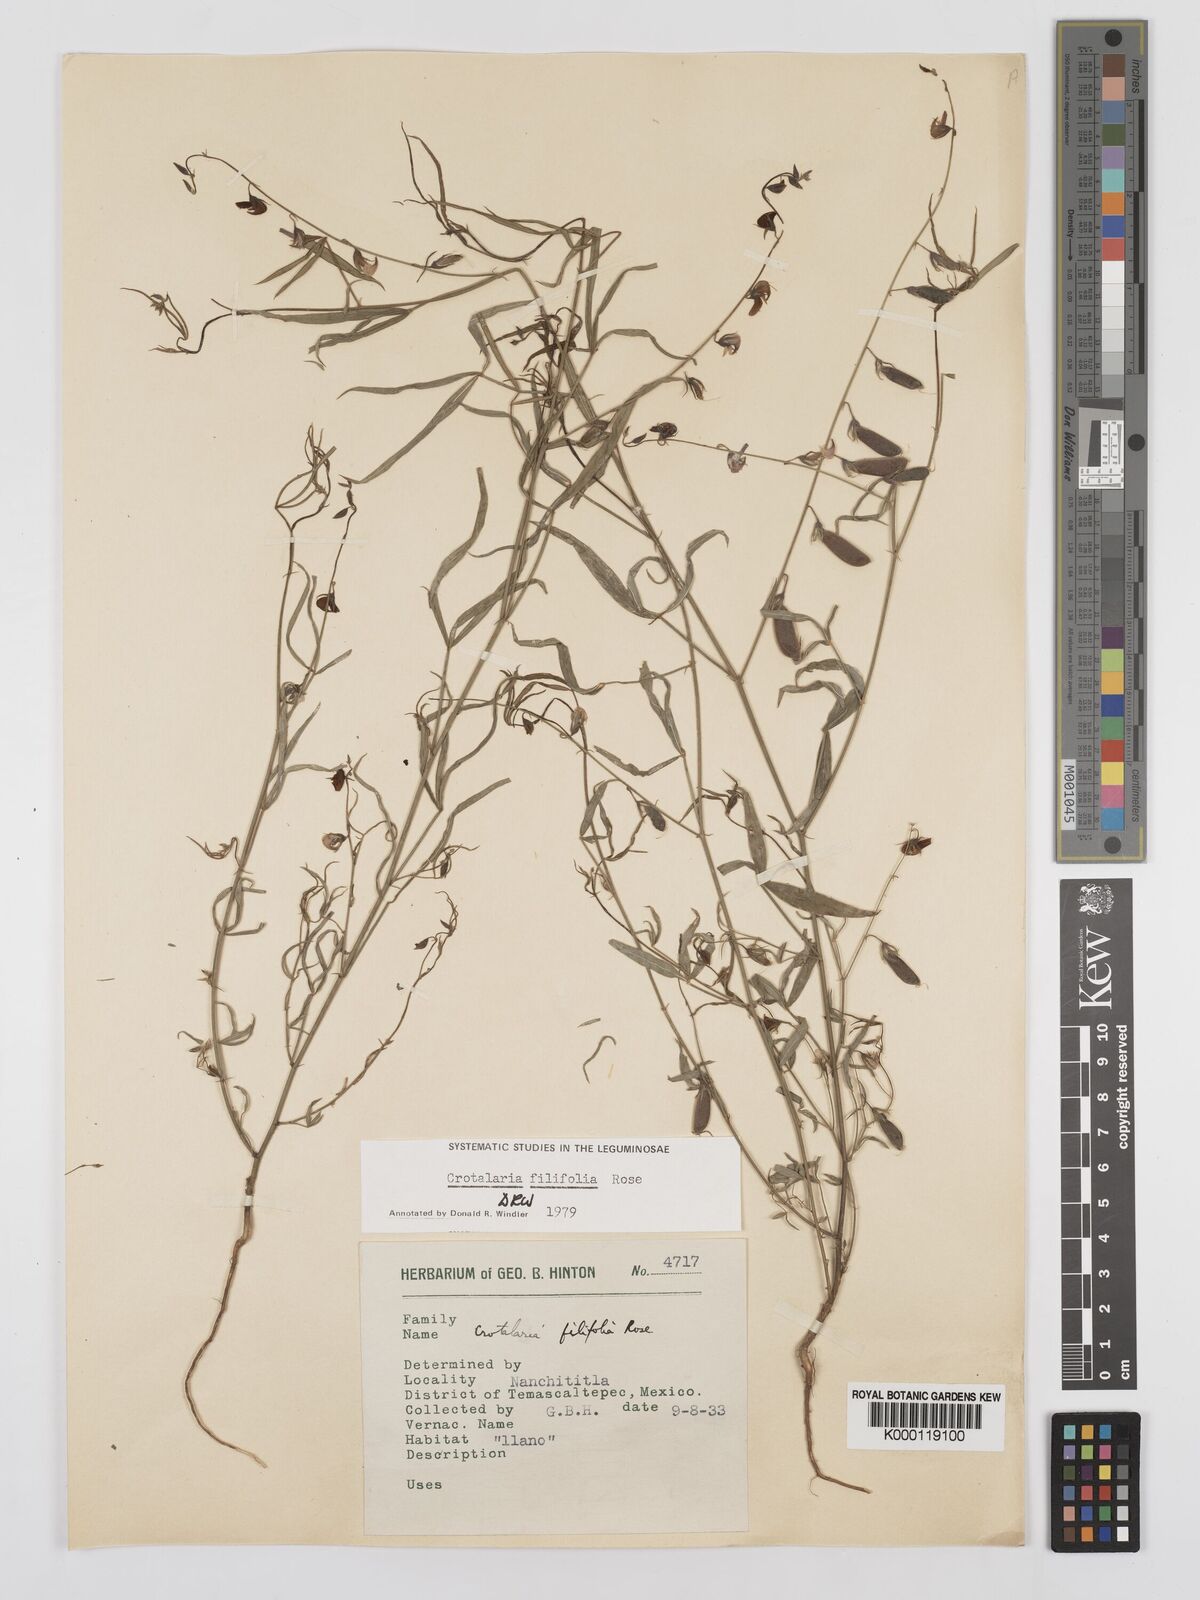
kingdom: Plantae
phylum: Tracheophyta
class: Magnoliopsida
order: Fabales
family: Fabaceae
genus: Crotalaria
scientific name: Crotalaria filifolia
